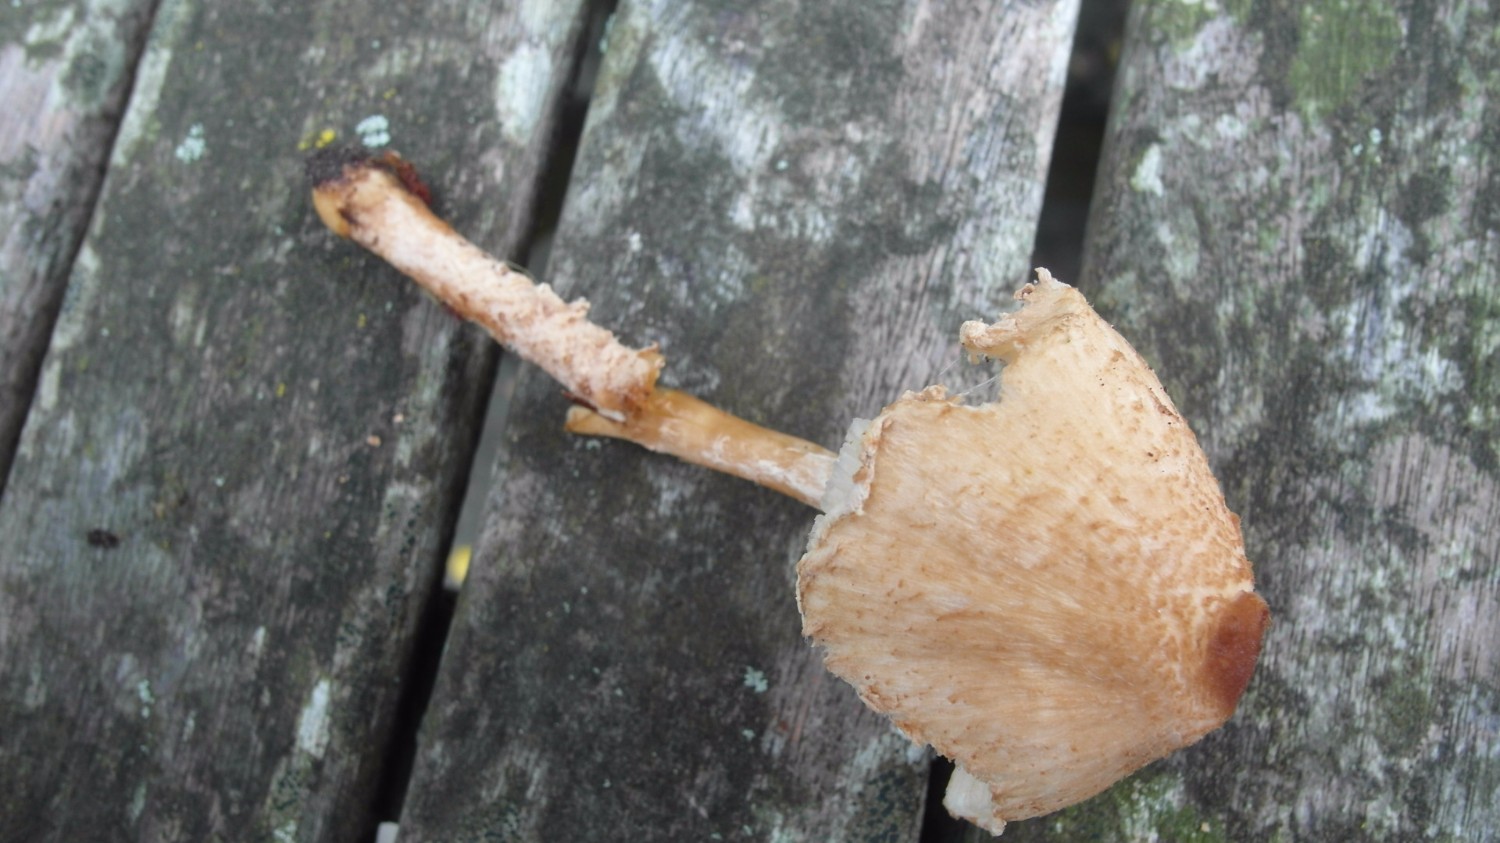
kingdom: Fungi
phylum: Basidiomycota
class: Agaricomycetes
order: Agaricales
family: Agaricaceae
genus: Lepiota
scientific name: Lepiota magnispora
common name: gulfnugget parasolhat
